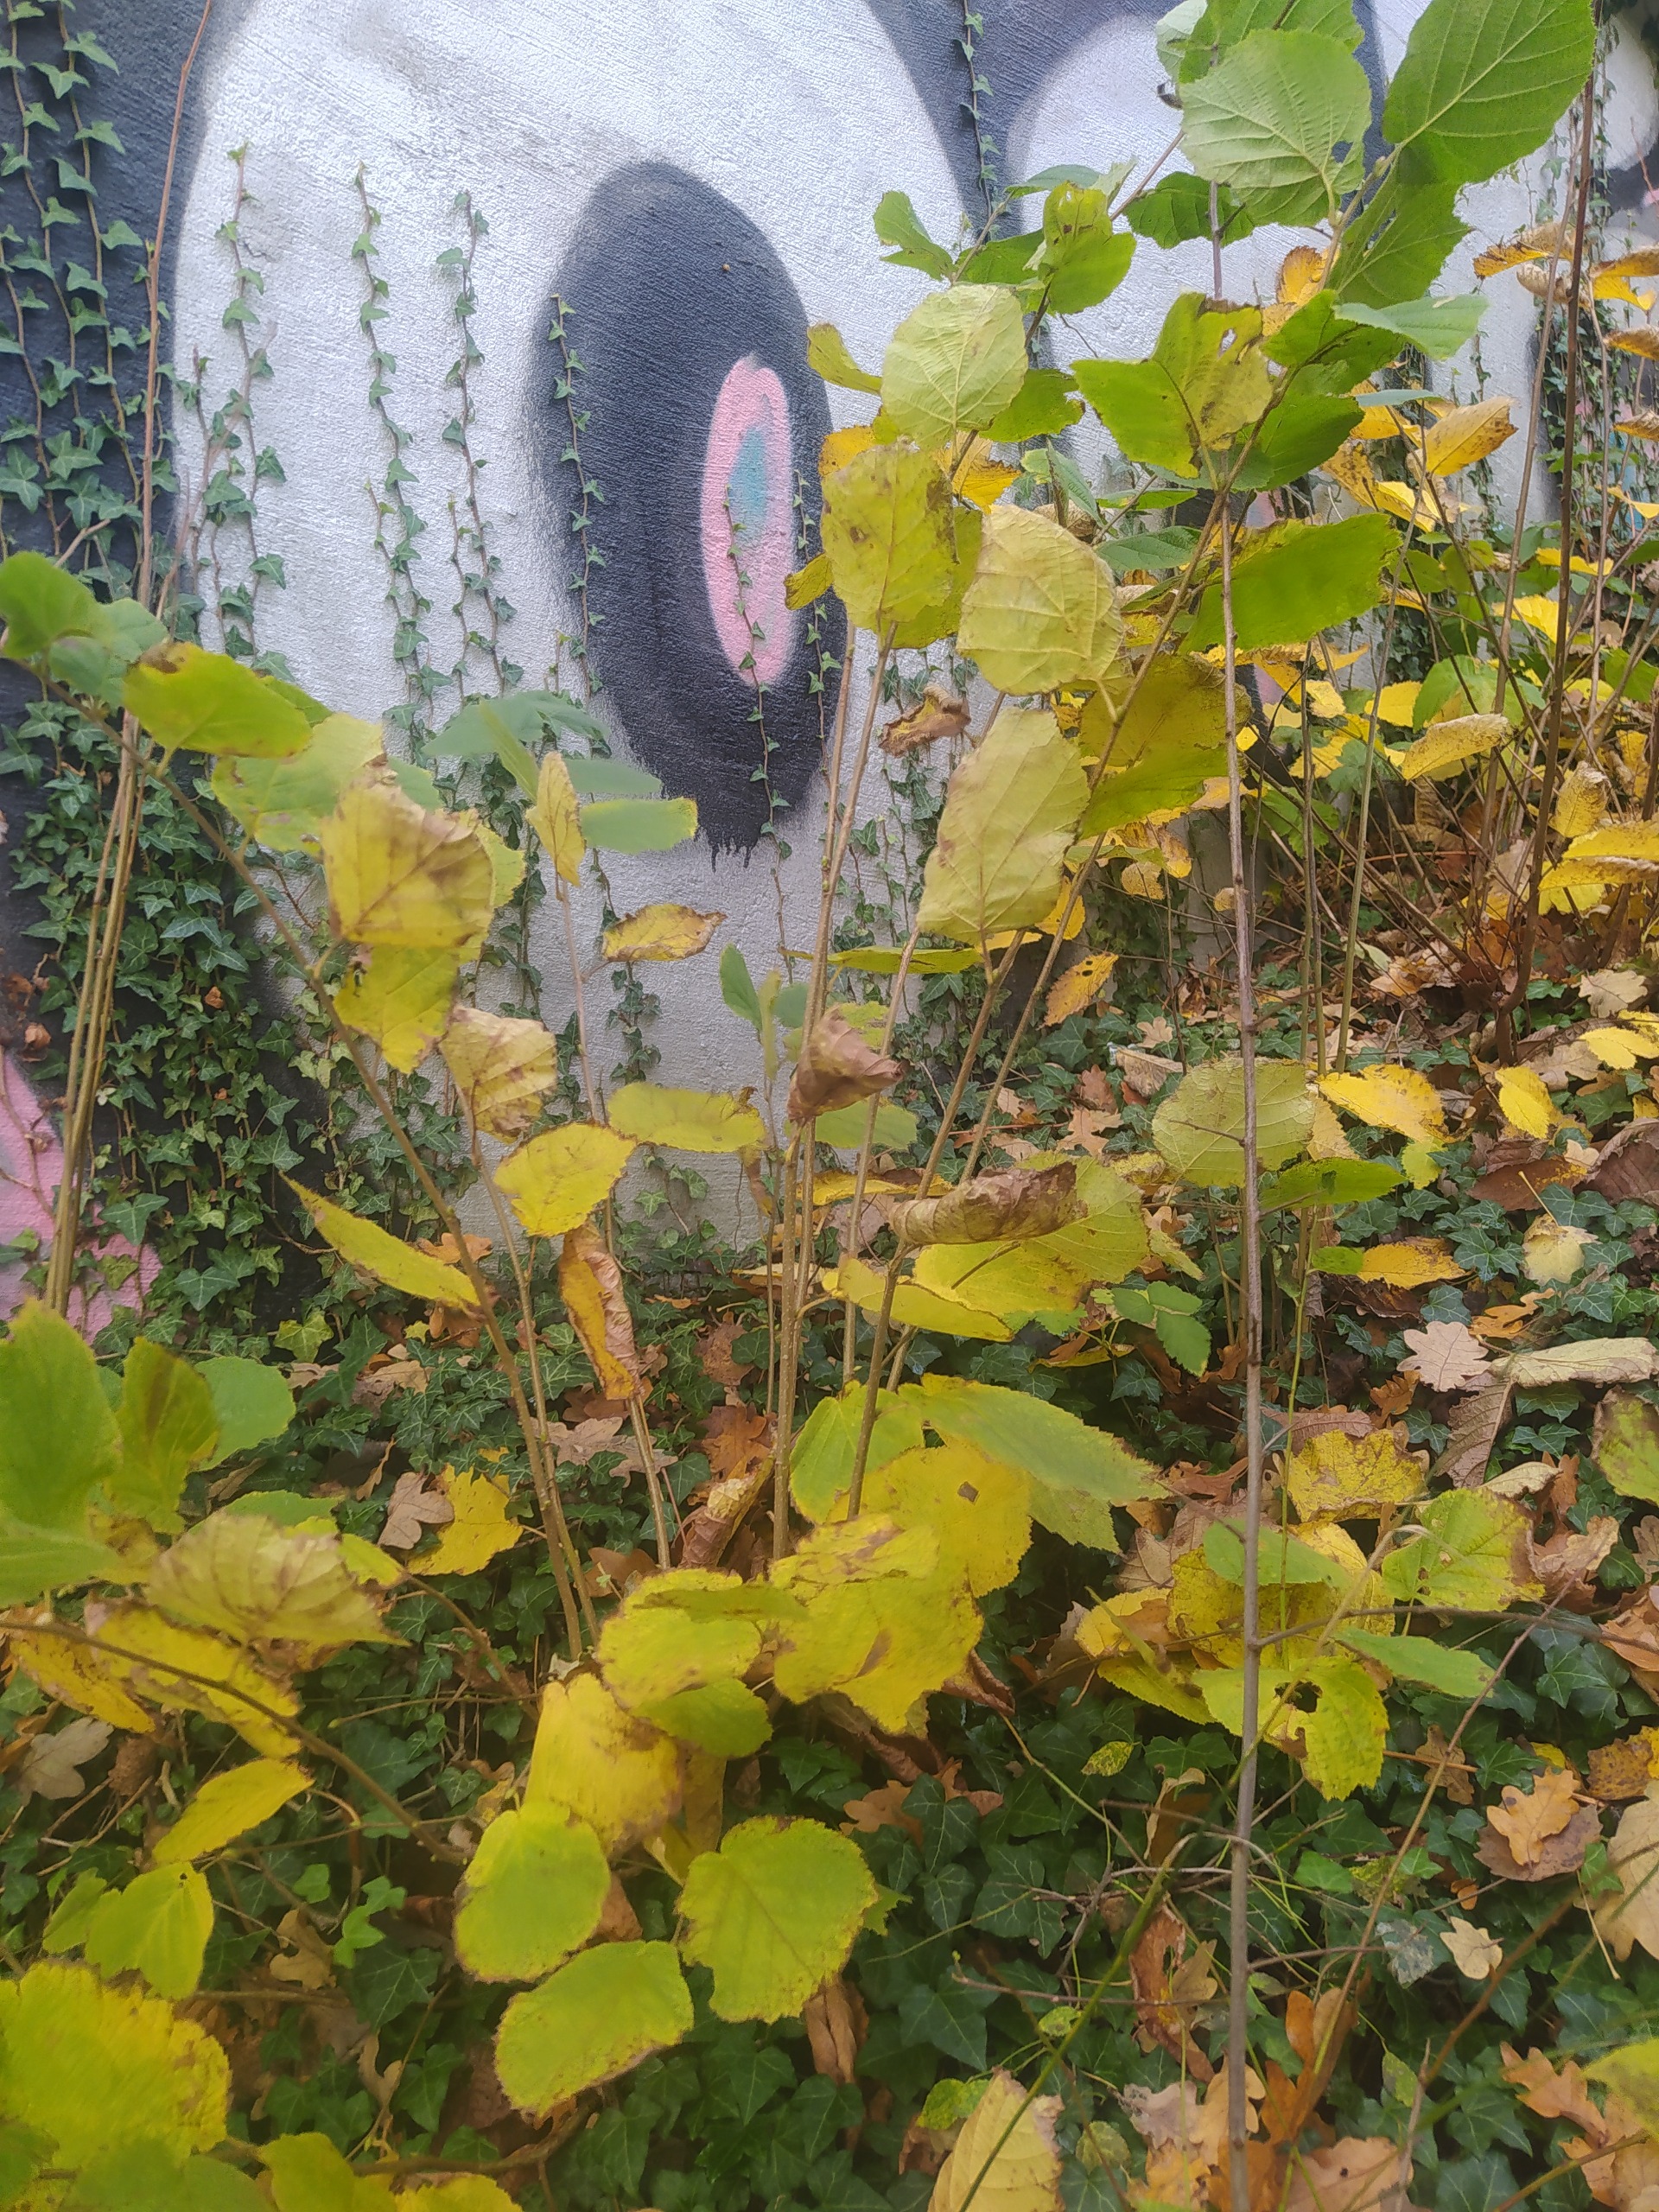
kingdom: Plantae
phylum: Tracheophyta
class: Magnoliopsida
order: Fagales
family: Betulaceae
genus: Corylus
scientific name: Corylus avellana
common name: Hassel
